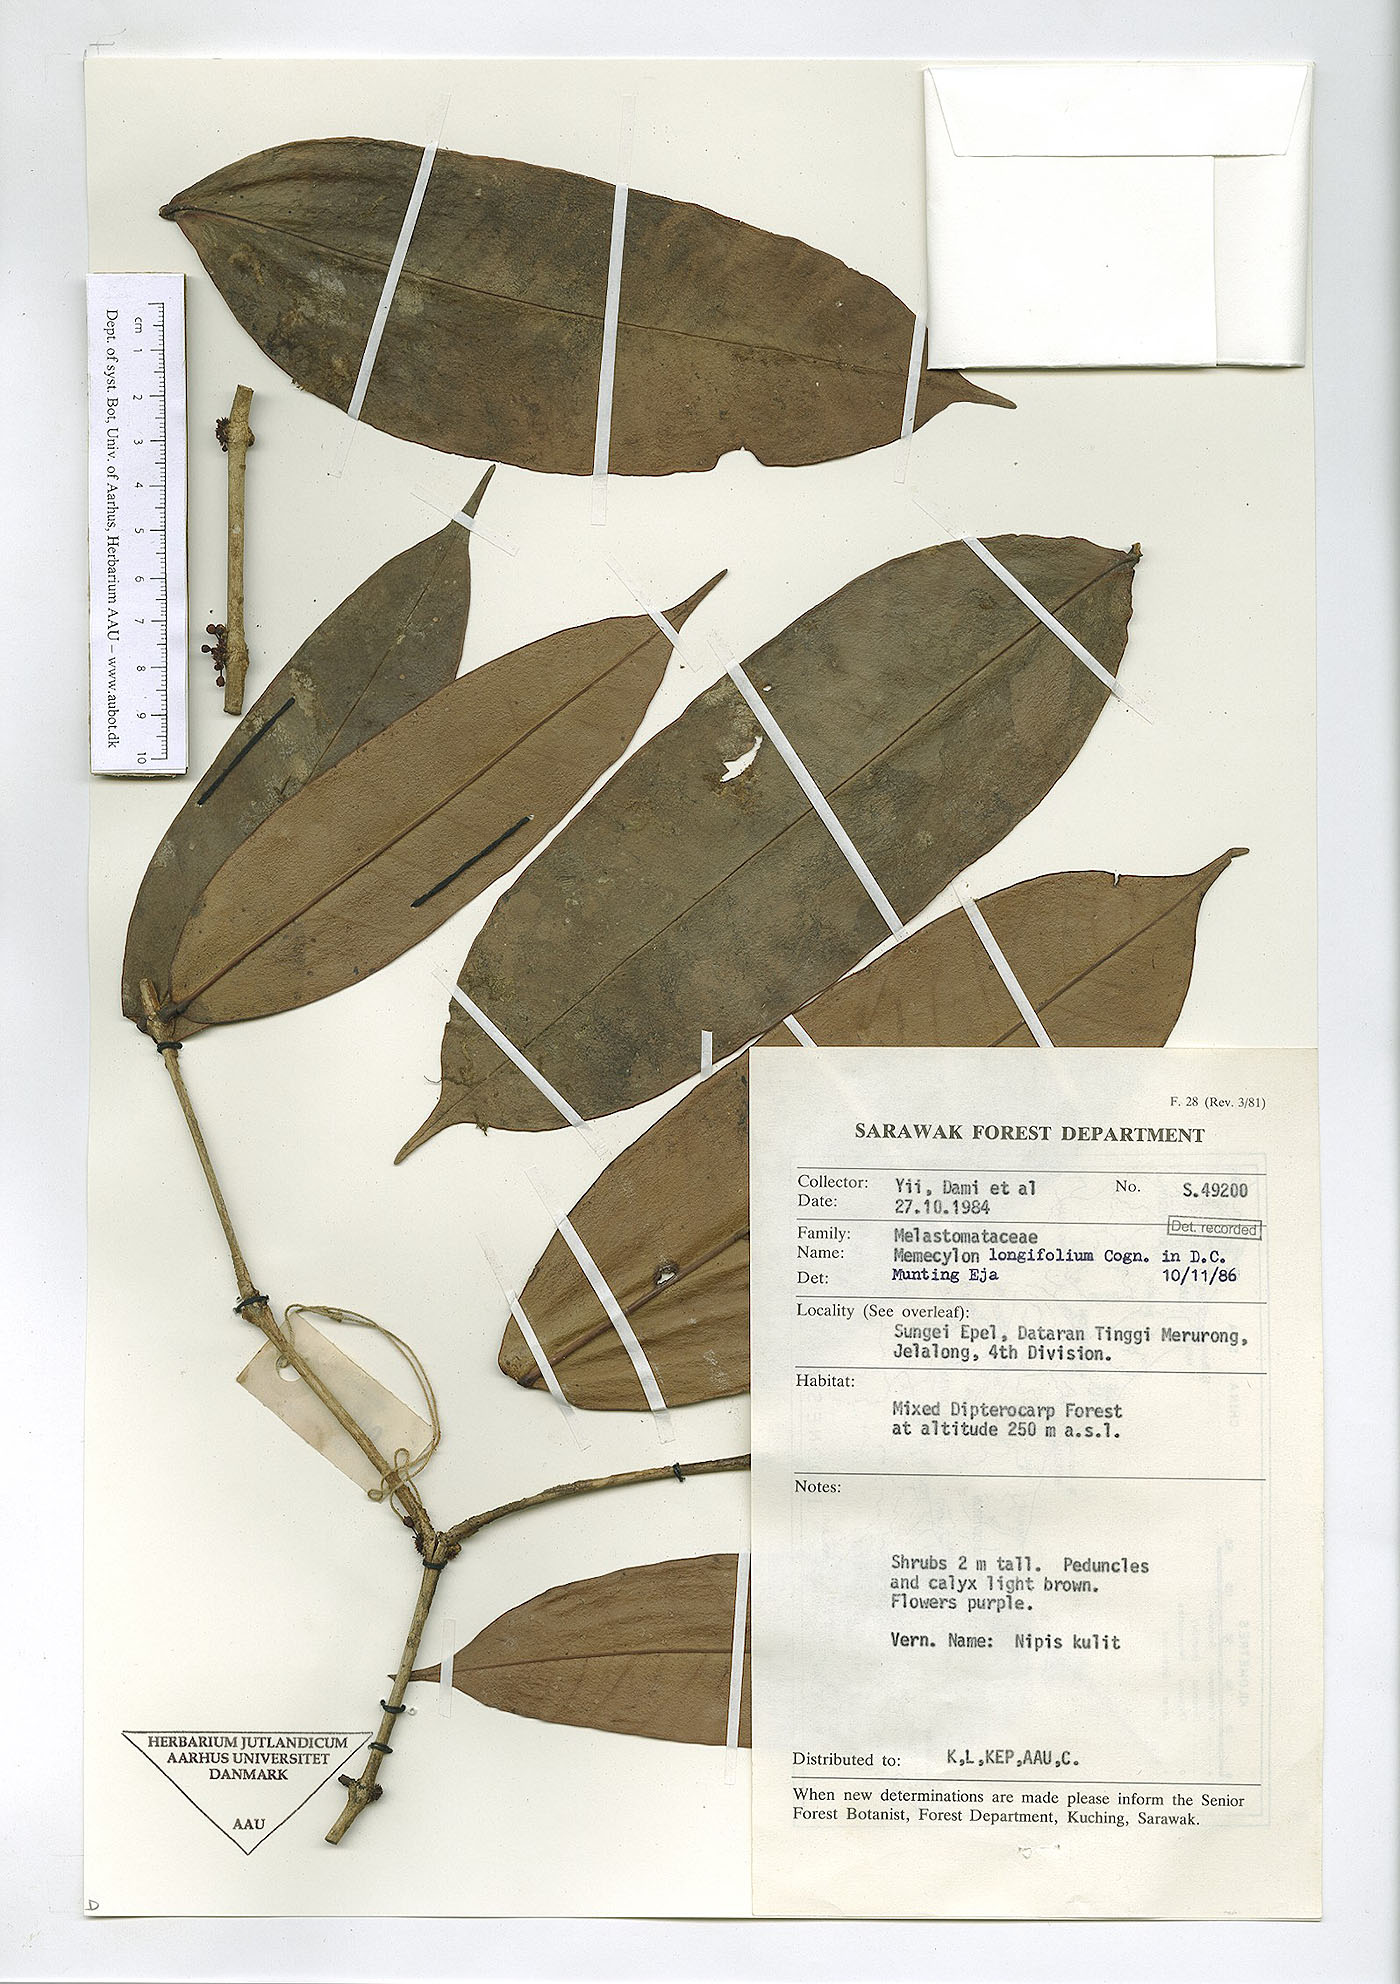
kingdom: Plantae
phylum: Tracheophyta
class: Magnoliopsida
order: Myrtales
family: Melastomataceae
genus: Memecylon
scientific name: Memecylon longifolium
